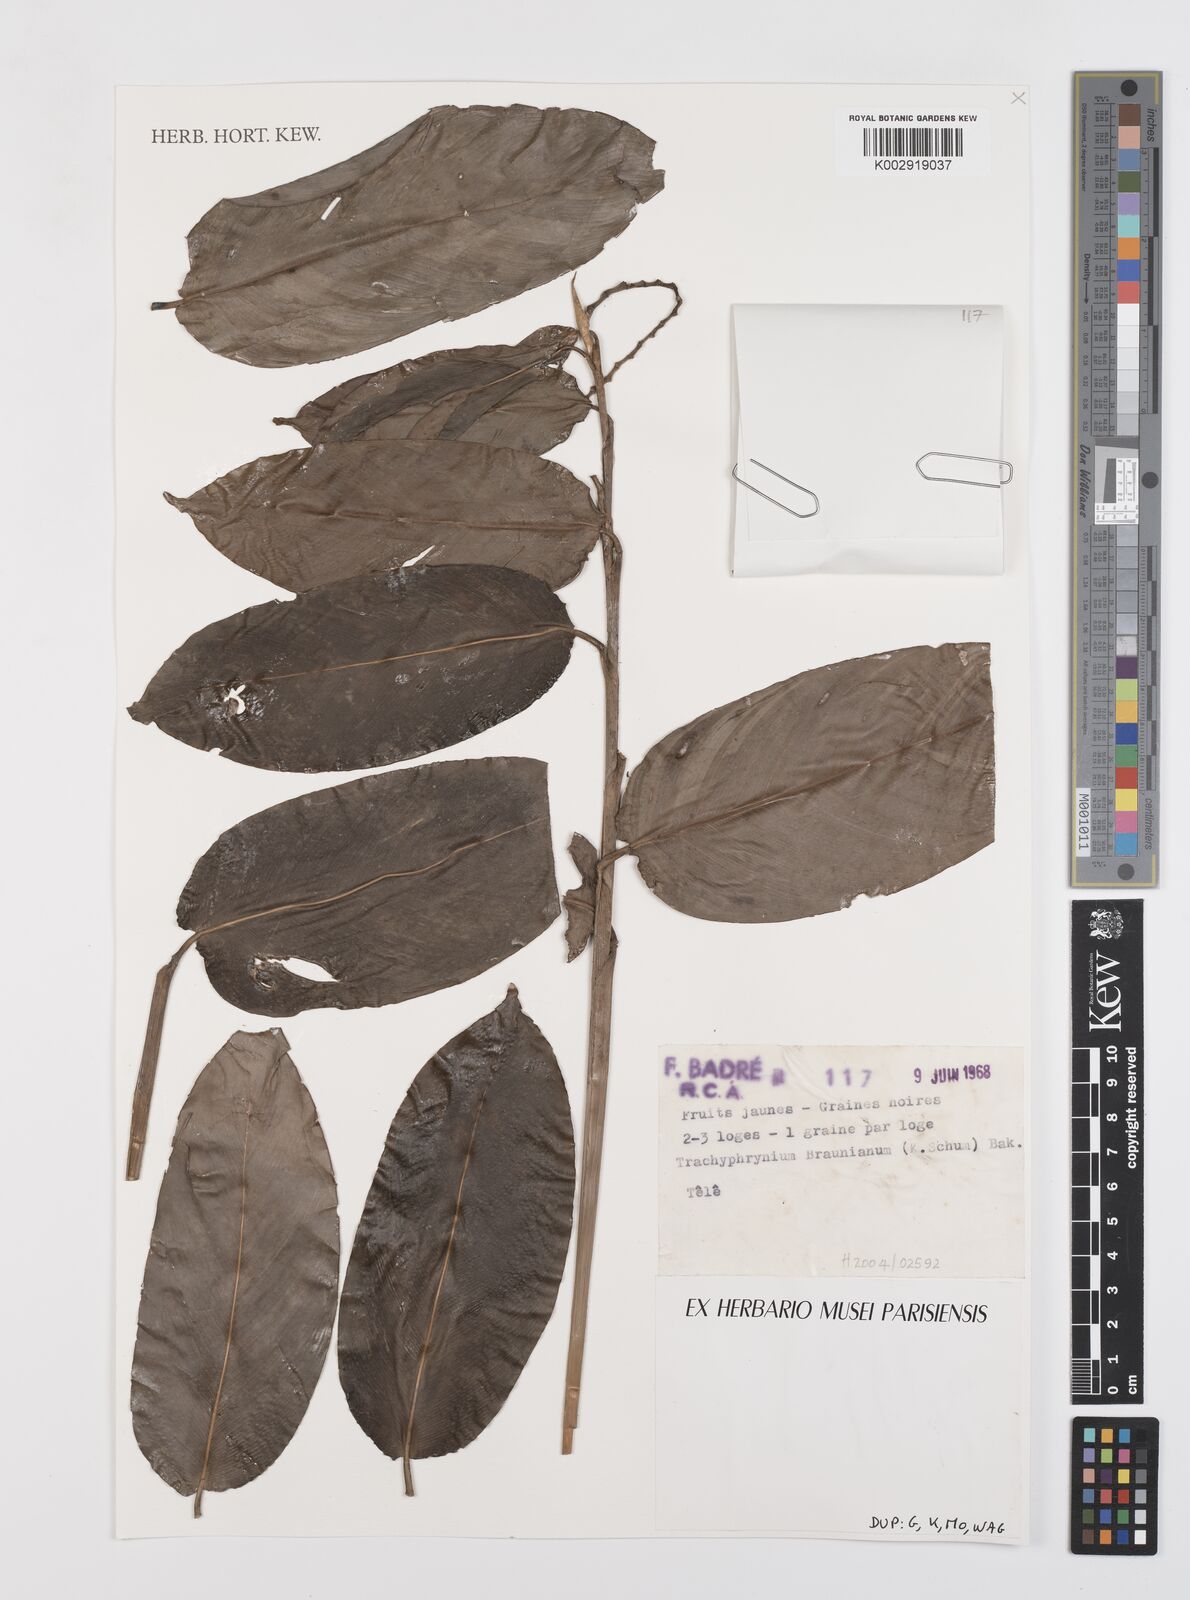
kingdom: Plantae
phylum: Tracheophyta
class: Liliopsida
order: Zingiberales
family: Marantaceae
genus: Trachyphrynium
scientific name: Trachyphrynium braunianum
